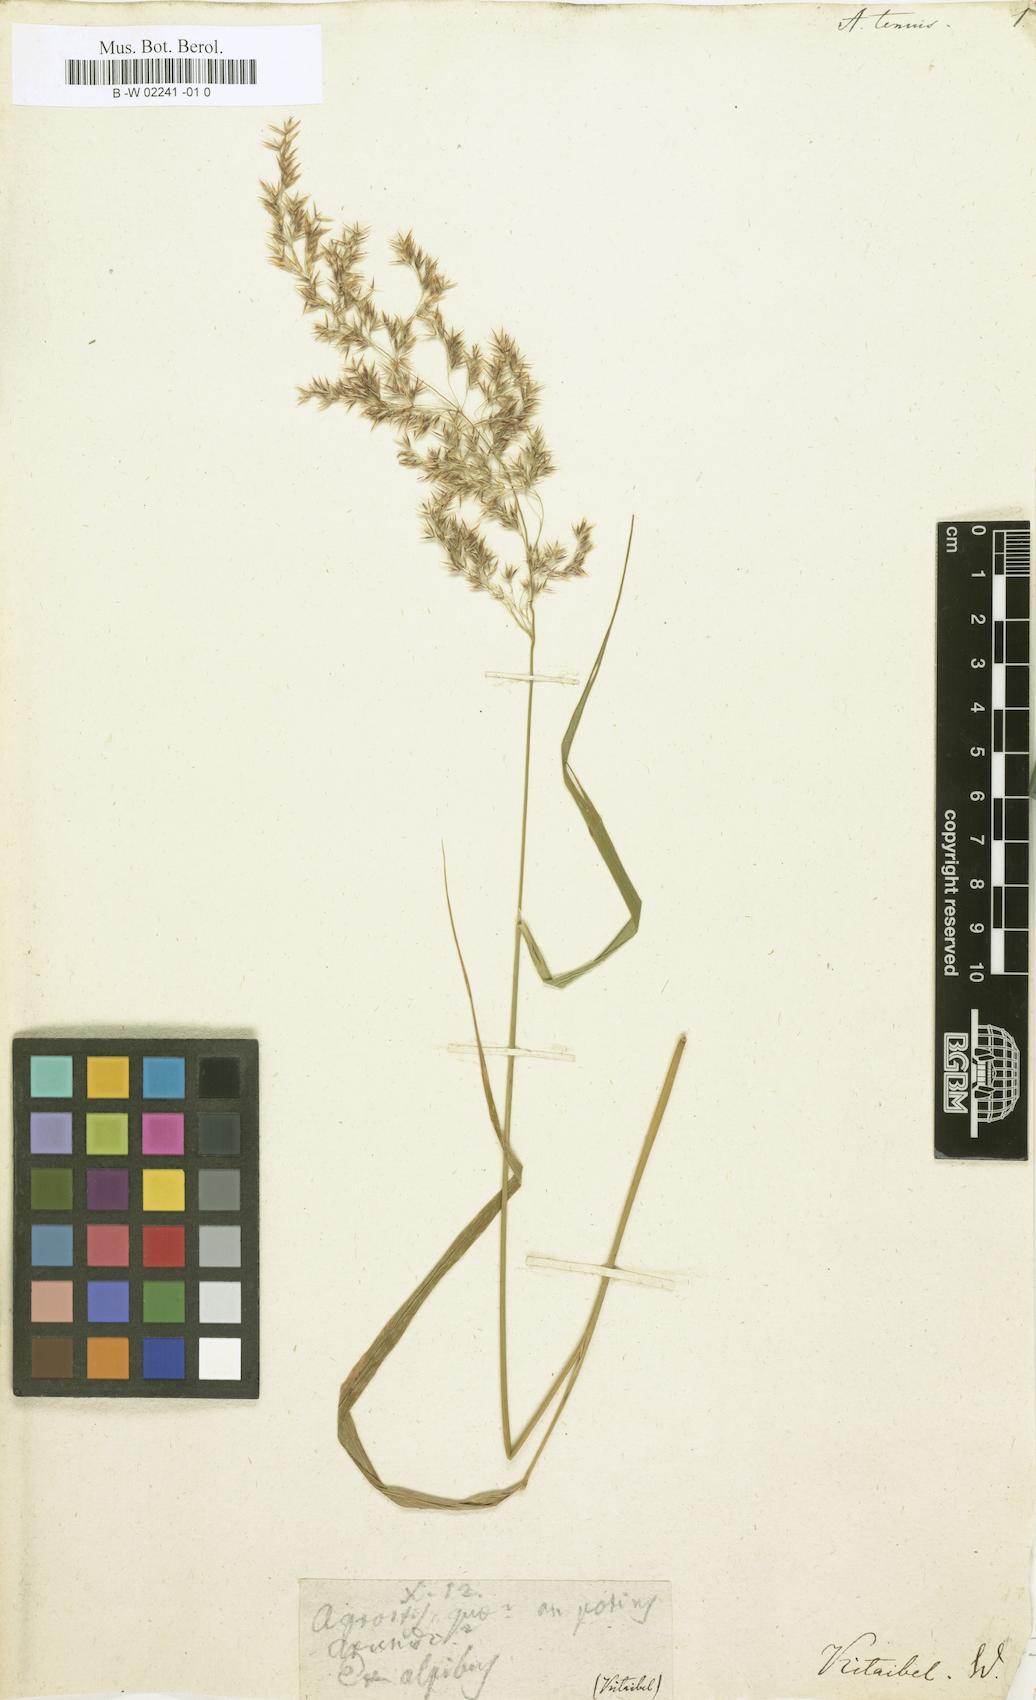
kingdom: Plantae
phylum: Tracheophyta
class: Liliopsida
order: Poales
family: Poaceae
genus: Arundo
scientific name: Arundo tenuis
